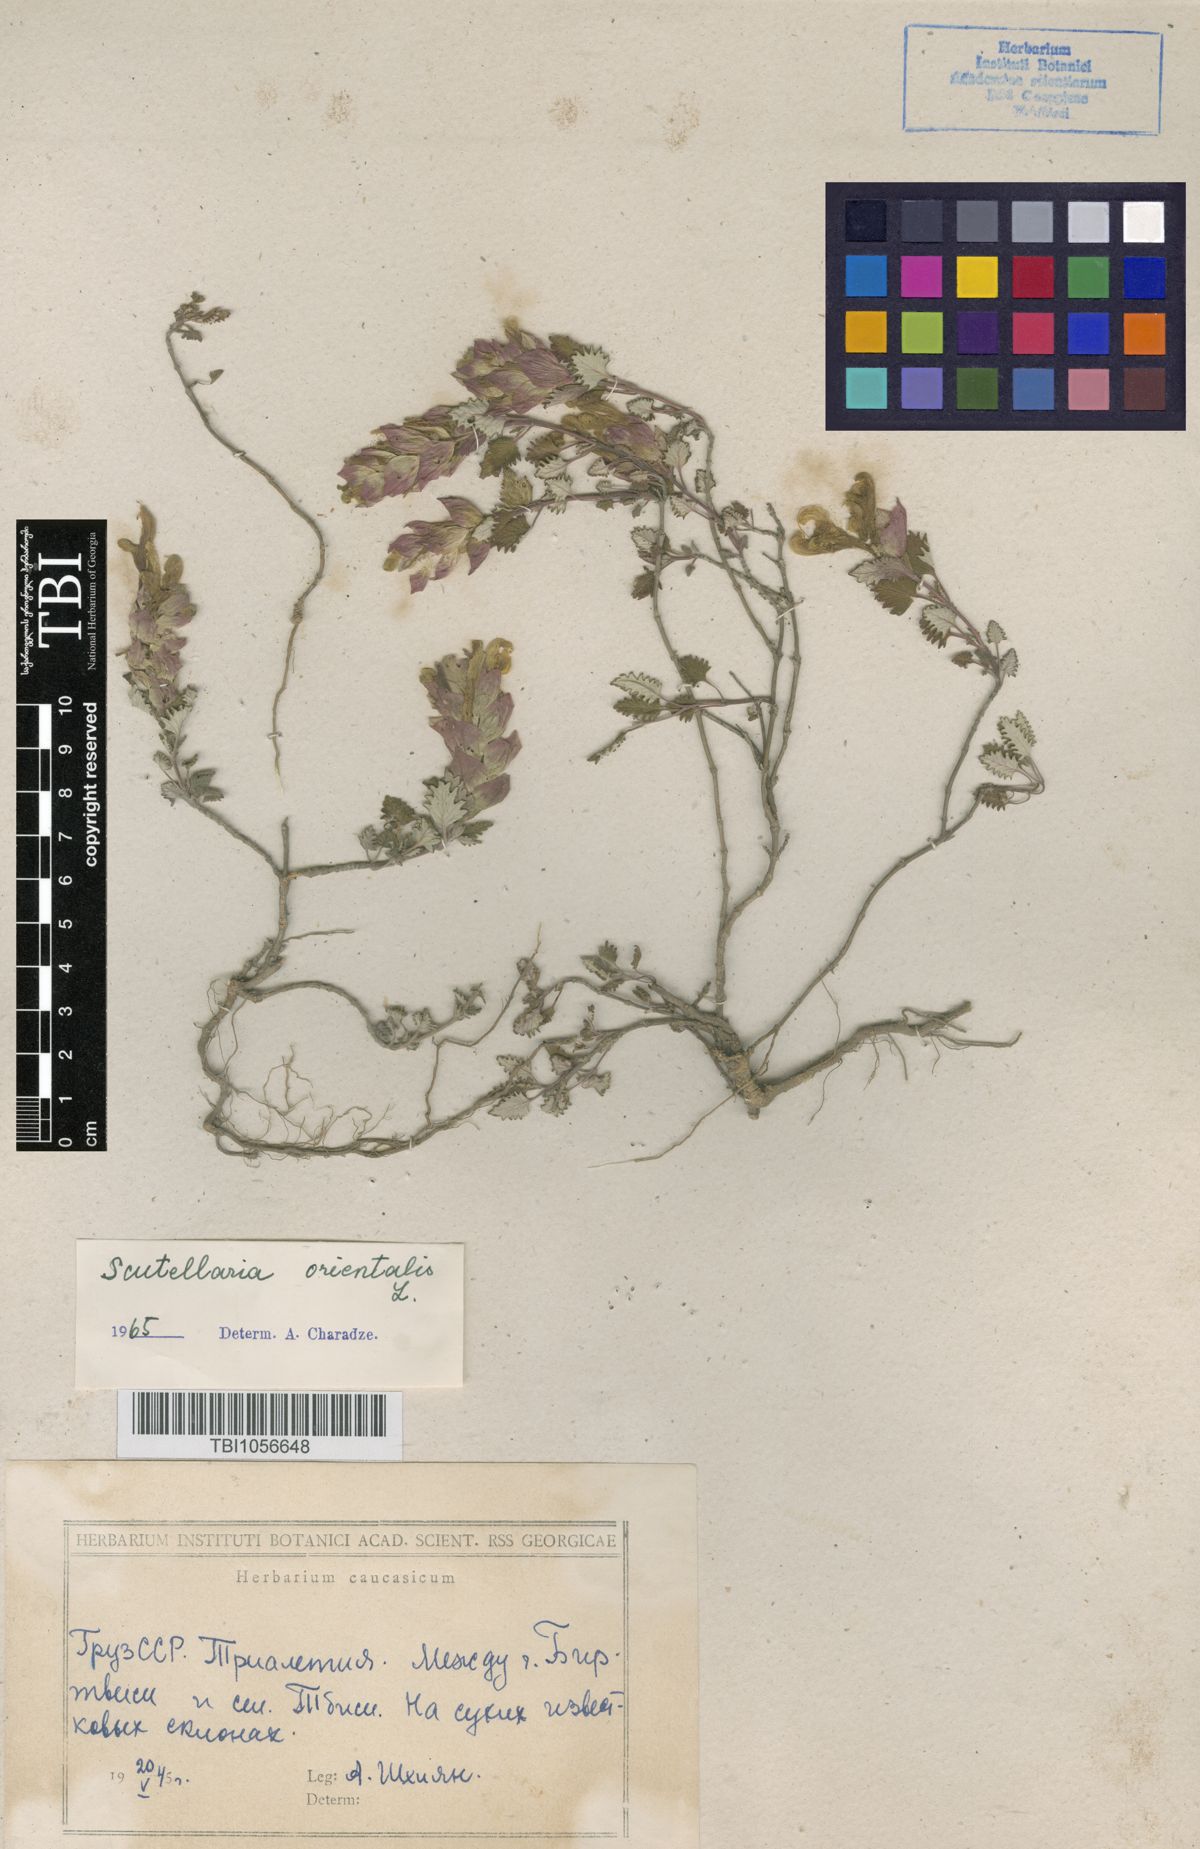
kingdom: Plantae
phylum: Tracheophyta
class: Magnoliopsida
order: Lamiales
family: Lamiaceae
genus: Scutellaria
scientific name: Scutellaria orientalis
